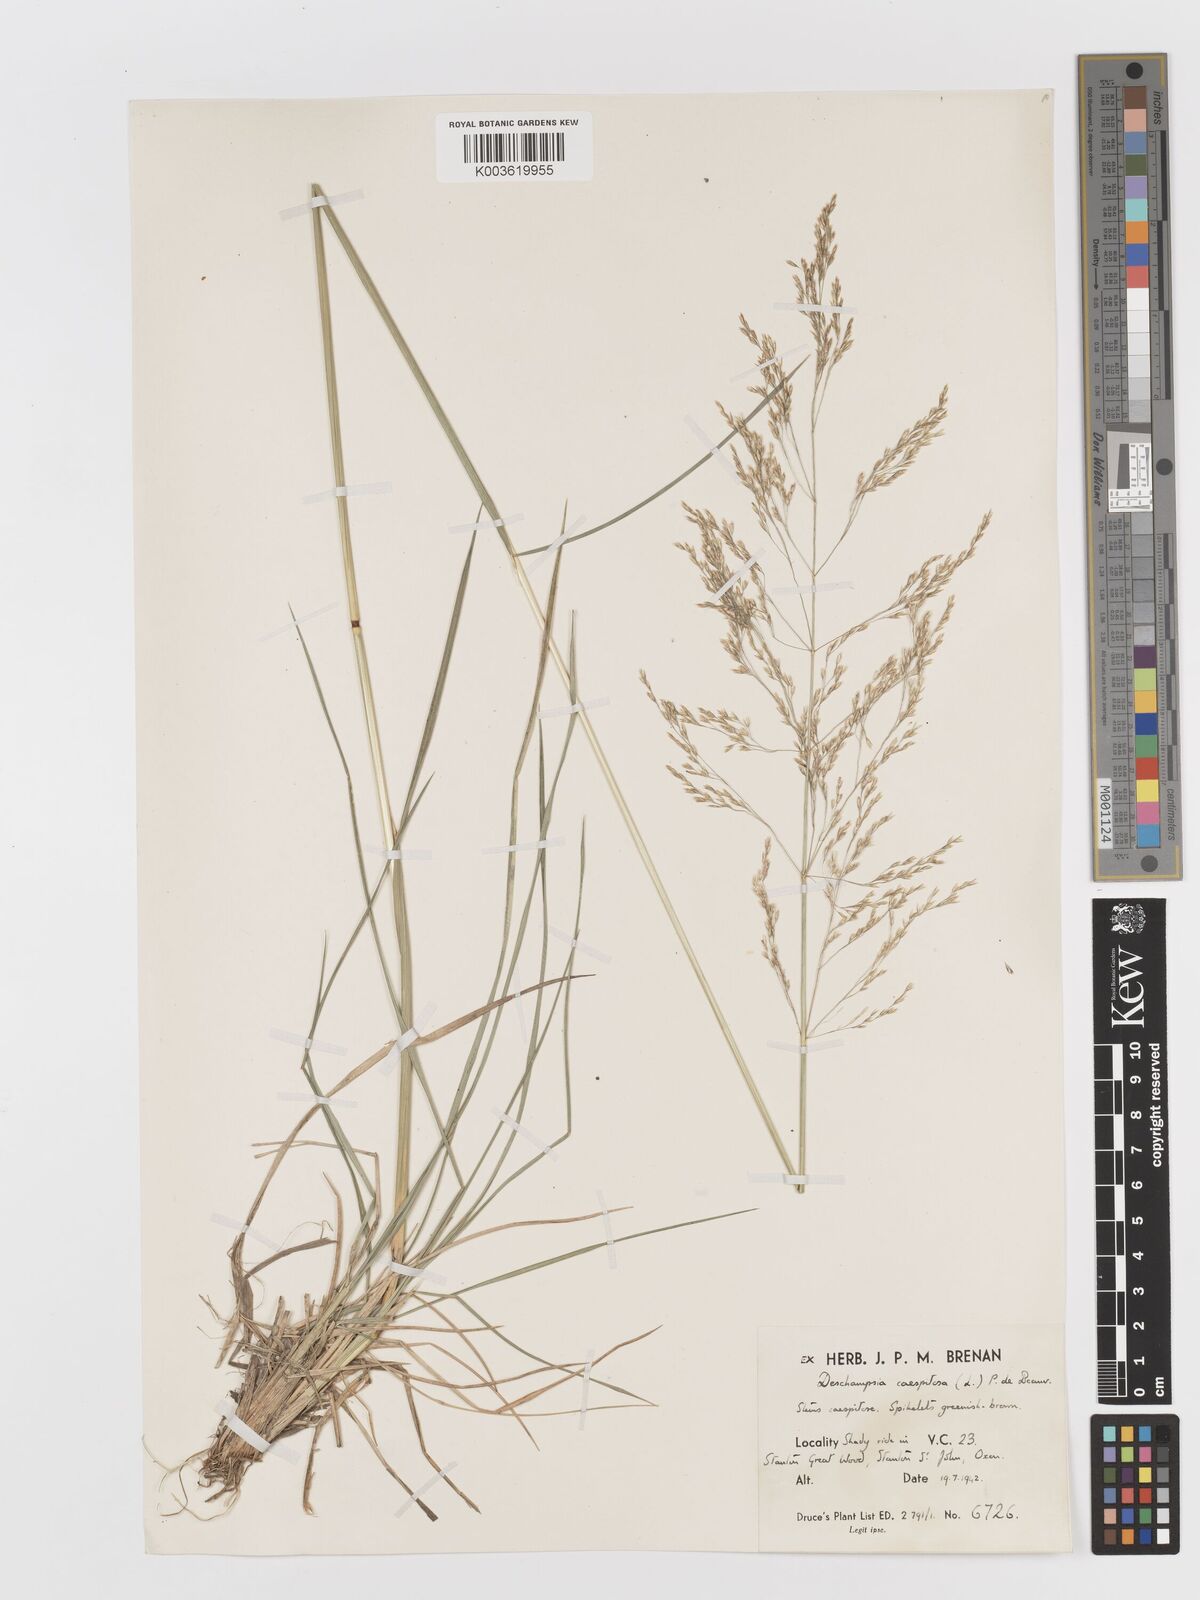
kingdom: Plantae
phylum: Tracheophyta
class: Liliopsida
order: Poales
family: Poaceae
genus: Deschampsia
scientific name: Deschampsia cespitosa
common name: Tufted hair-grass
